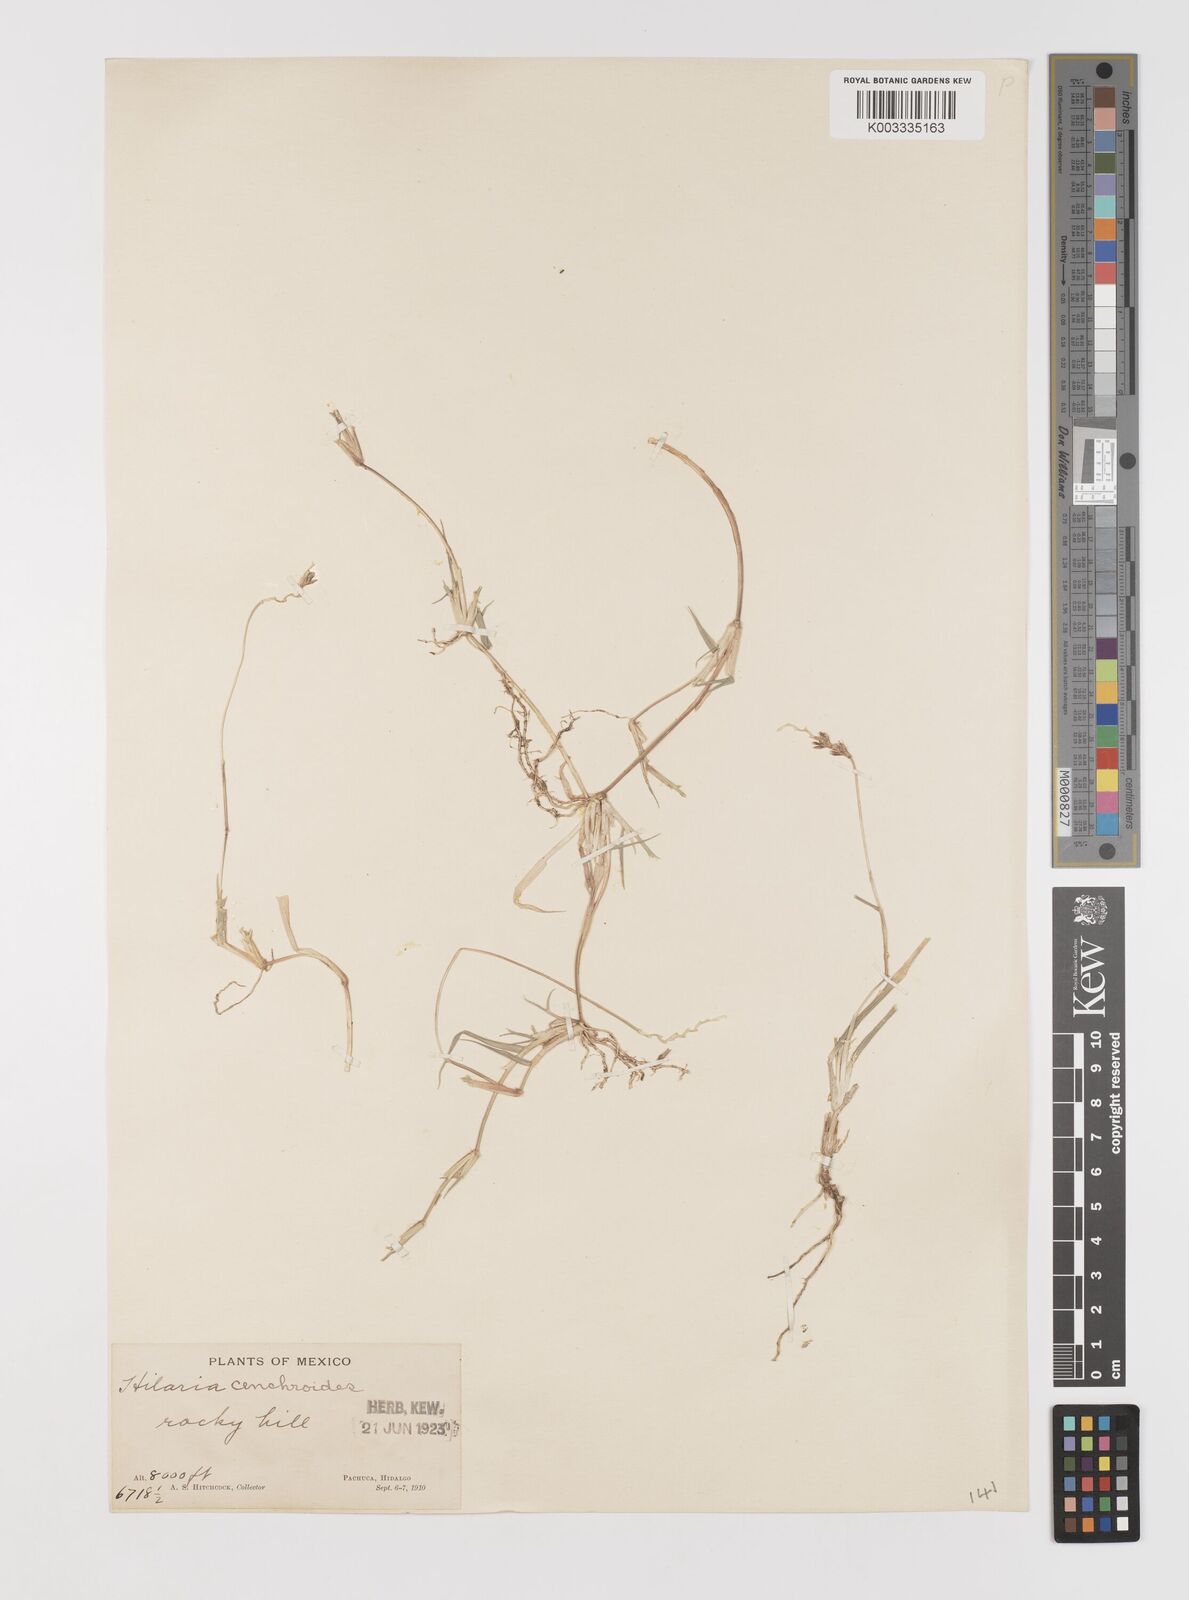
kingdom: Plantae
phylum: Tracheophyta
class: Liliopsida
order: Poales
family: Poaceae
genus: Hilaria
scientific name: Hilaria cenchroides
